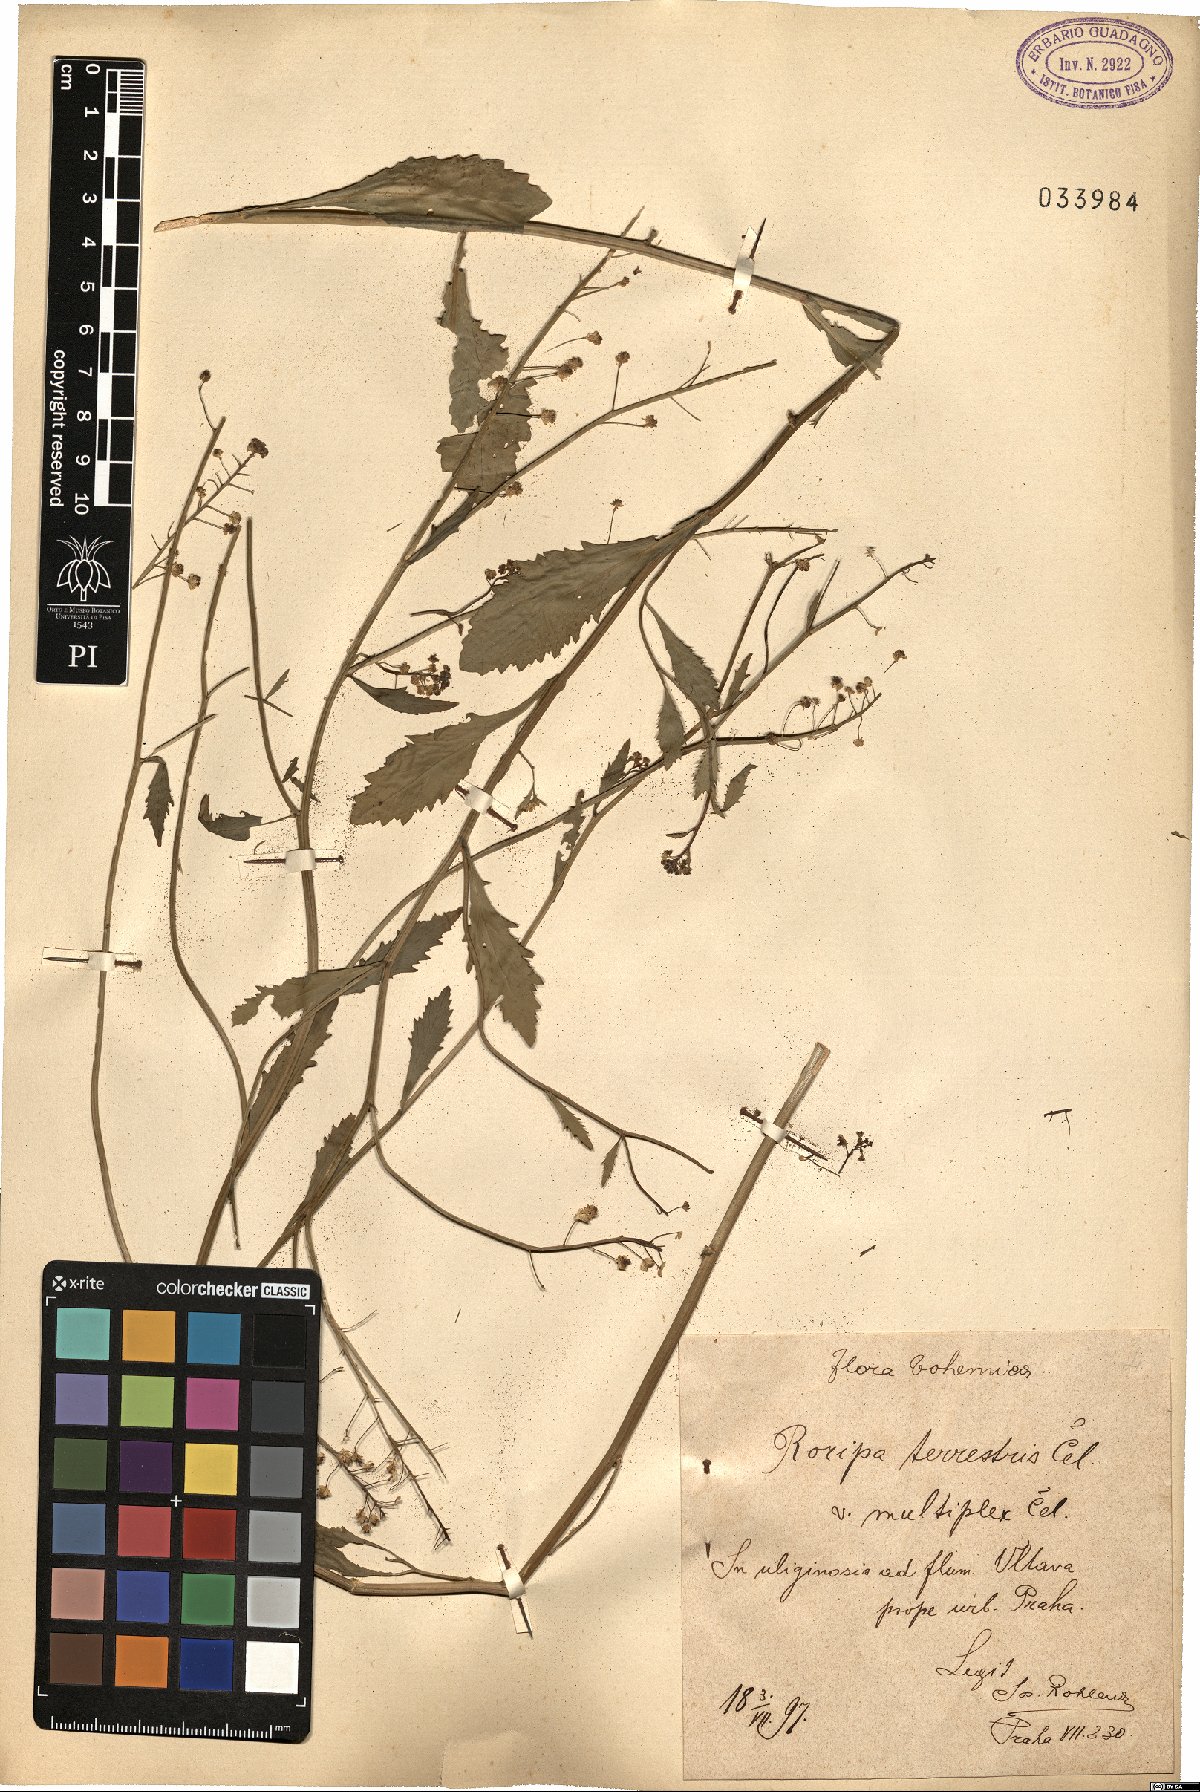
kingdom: Plantae
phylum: Tracheophyta
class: Magnoliopsida
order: Brassicales
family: Brassicaceae
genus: Rorippa
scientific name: Rorippa
